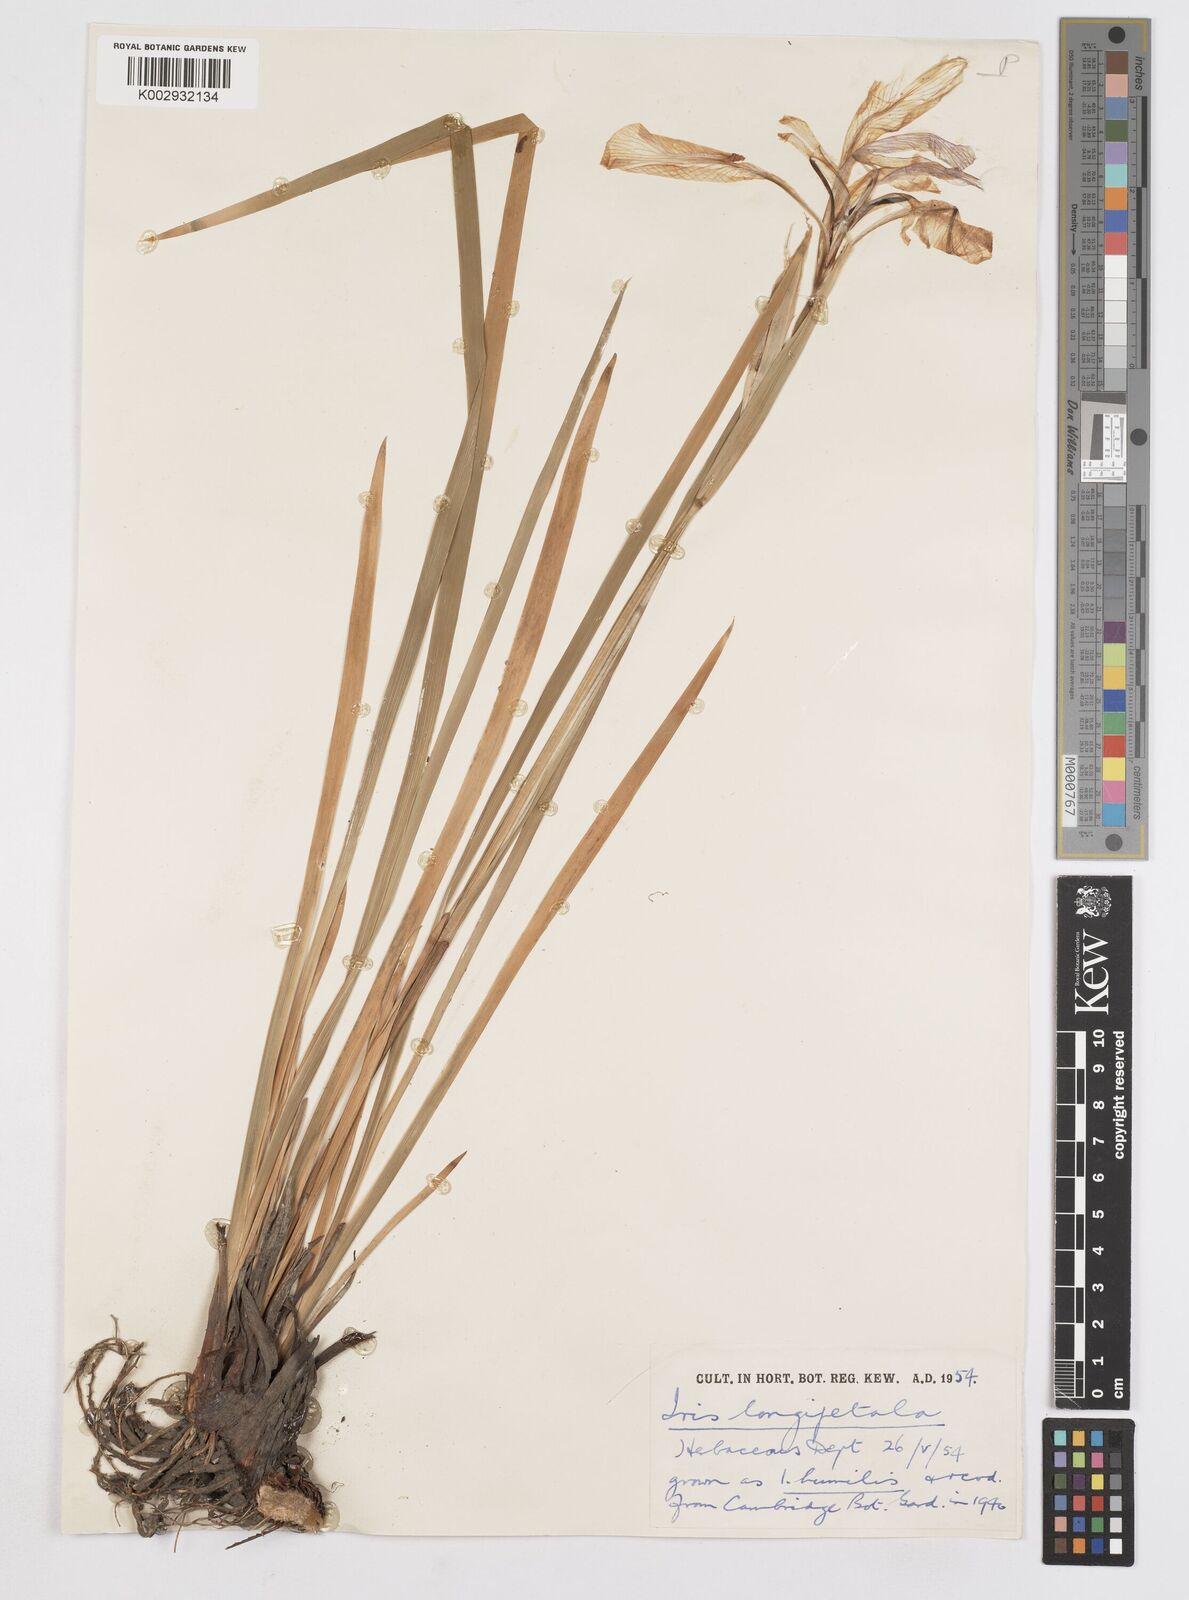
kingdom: Plantae
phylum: Tracheophyta
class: Liliopsida
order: Asparagales
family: Iridaceae
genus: Iris
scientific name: Iris longipetala
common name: Long-petal iris
